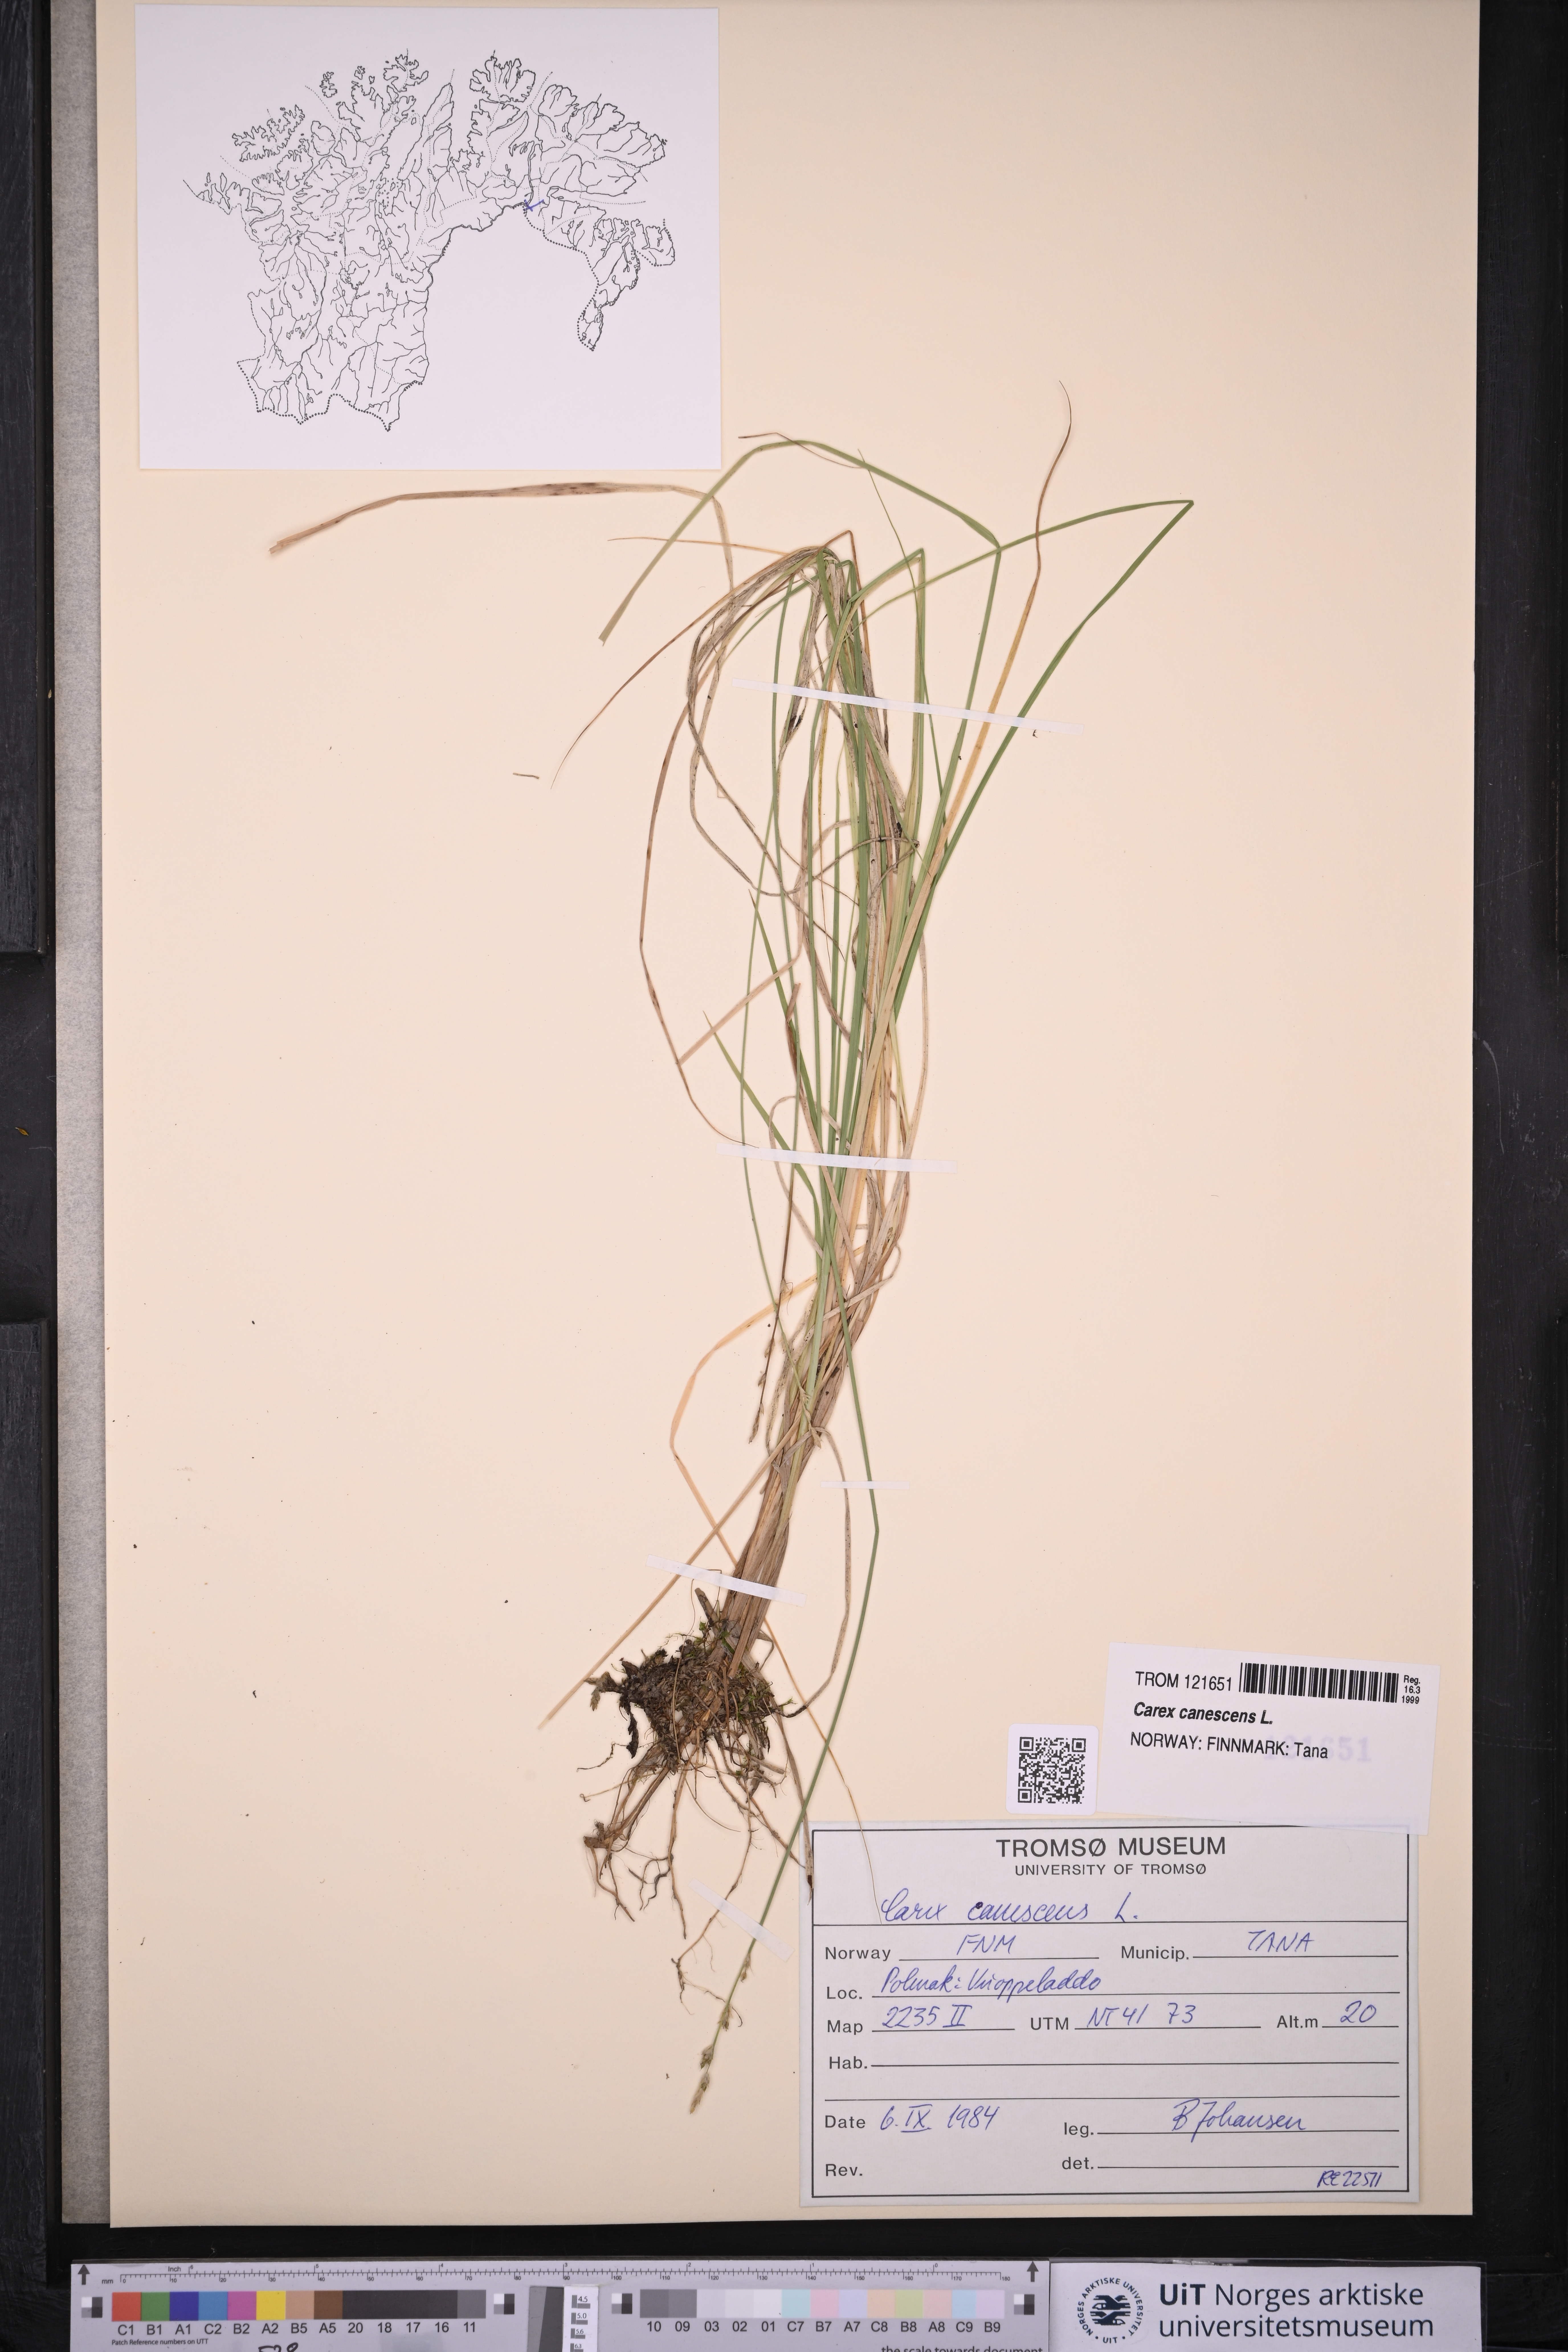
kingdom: Plantae
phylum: Tracheophyta
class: Liliopsida
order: Poales
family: Cyperaceae
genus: Carex
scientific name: Carex canescens
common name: White sedge
